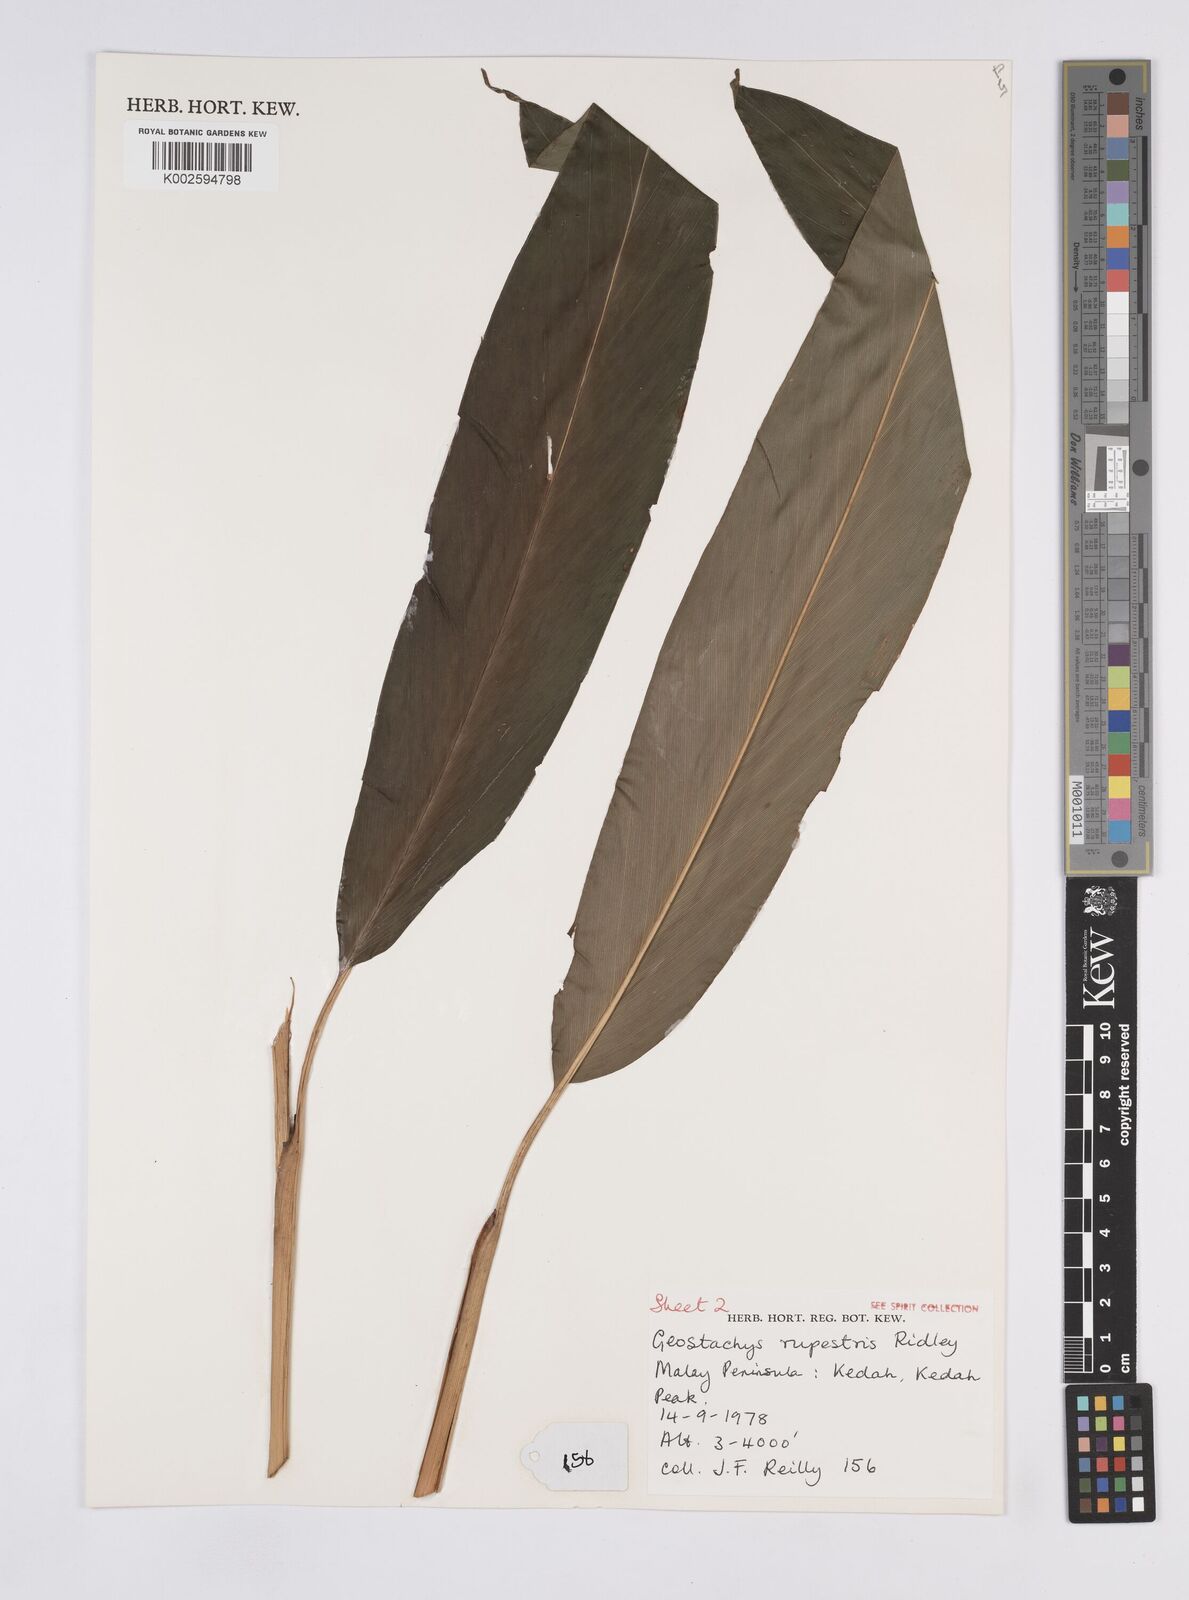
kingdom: Plantae
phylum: Tracheophyta
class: Liliopsida
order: Zingiberales
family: Zingiberaceae
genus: Geostachys
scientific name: Geostachys rupestris
